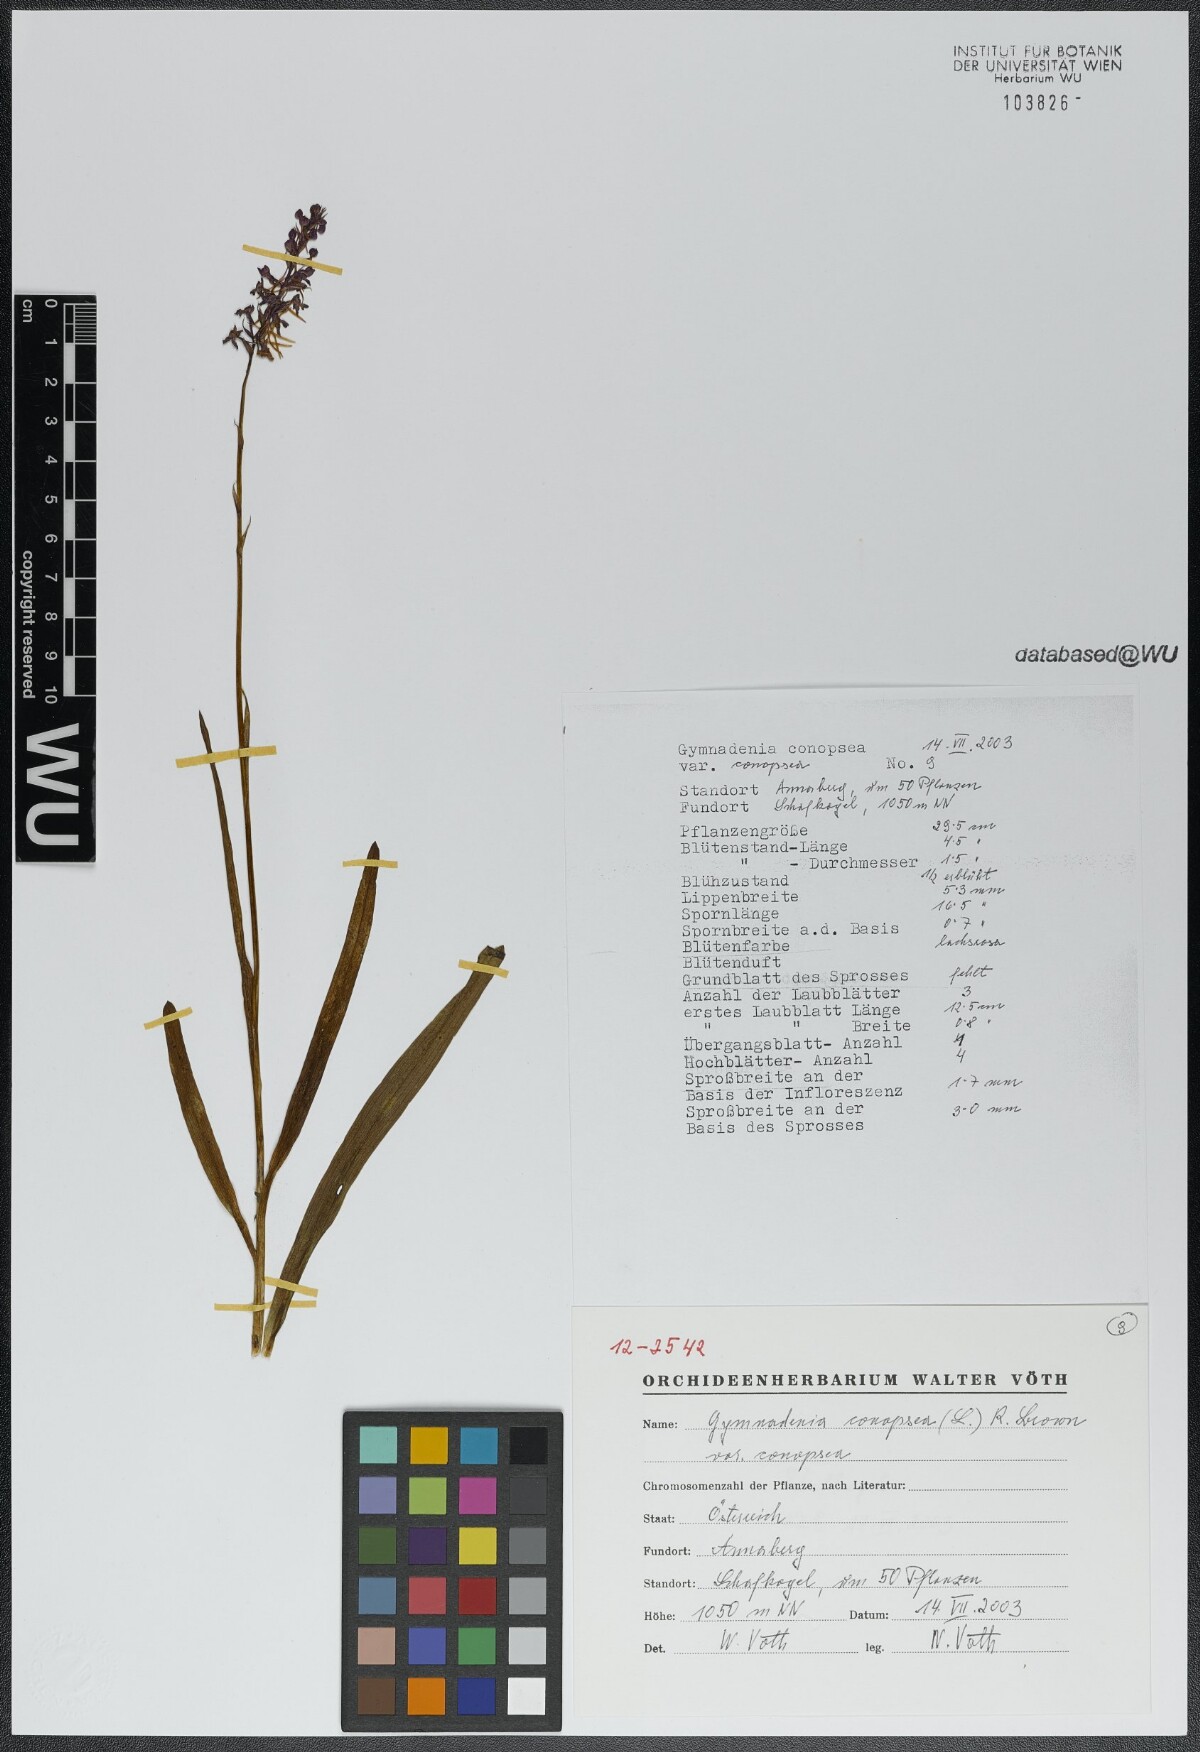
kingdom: Plantae
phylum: Tracheophyta
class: Liliopsida
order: Asparagales
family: Orchidaceae
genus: Gymnadenia
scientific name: Gymnadenia conopsea
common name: Fragrant orchid
